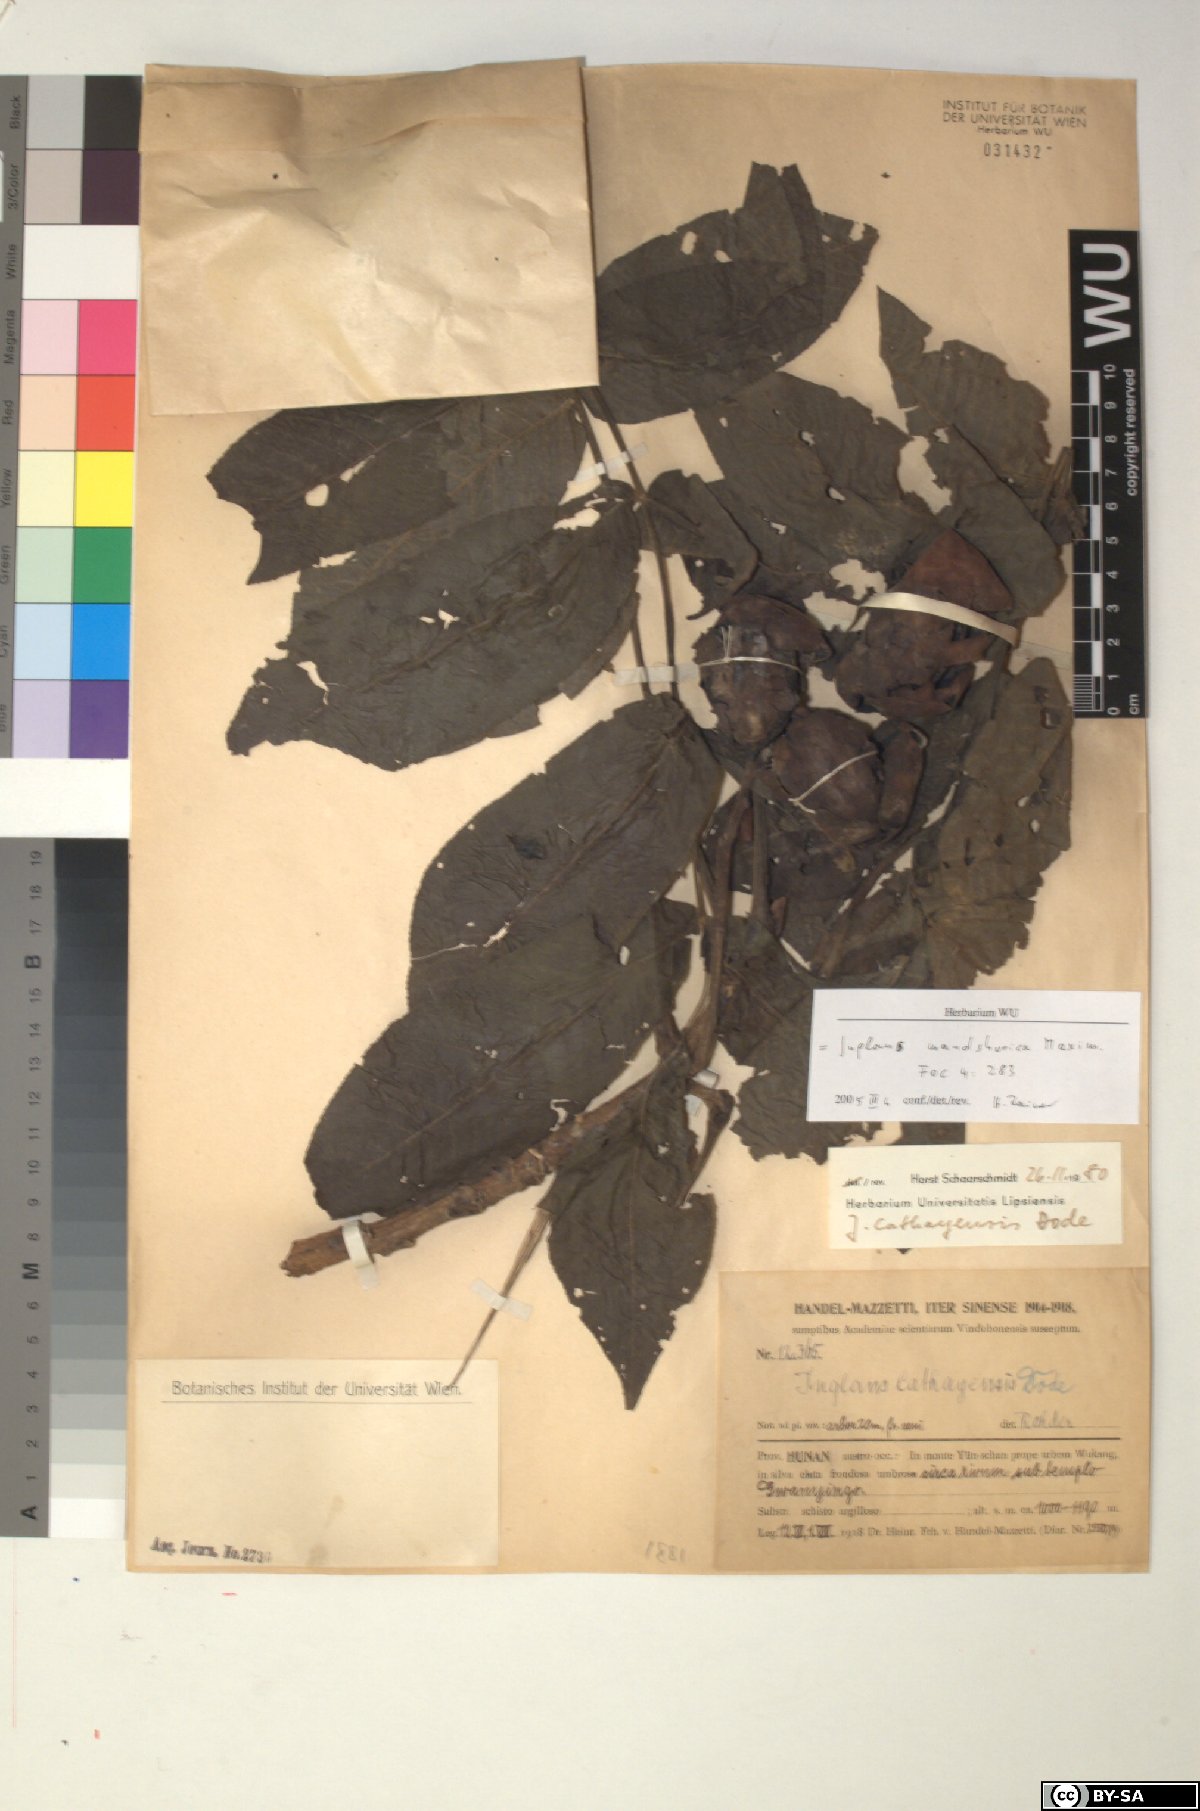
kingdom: Plantae
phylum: Tracheophyta
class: Magnoliopsida
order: Fagales
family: Juglandaceae
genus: Juglans
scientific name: Juglans mandshurica
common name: Manchurian walnut
